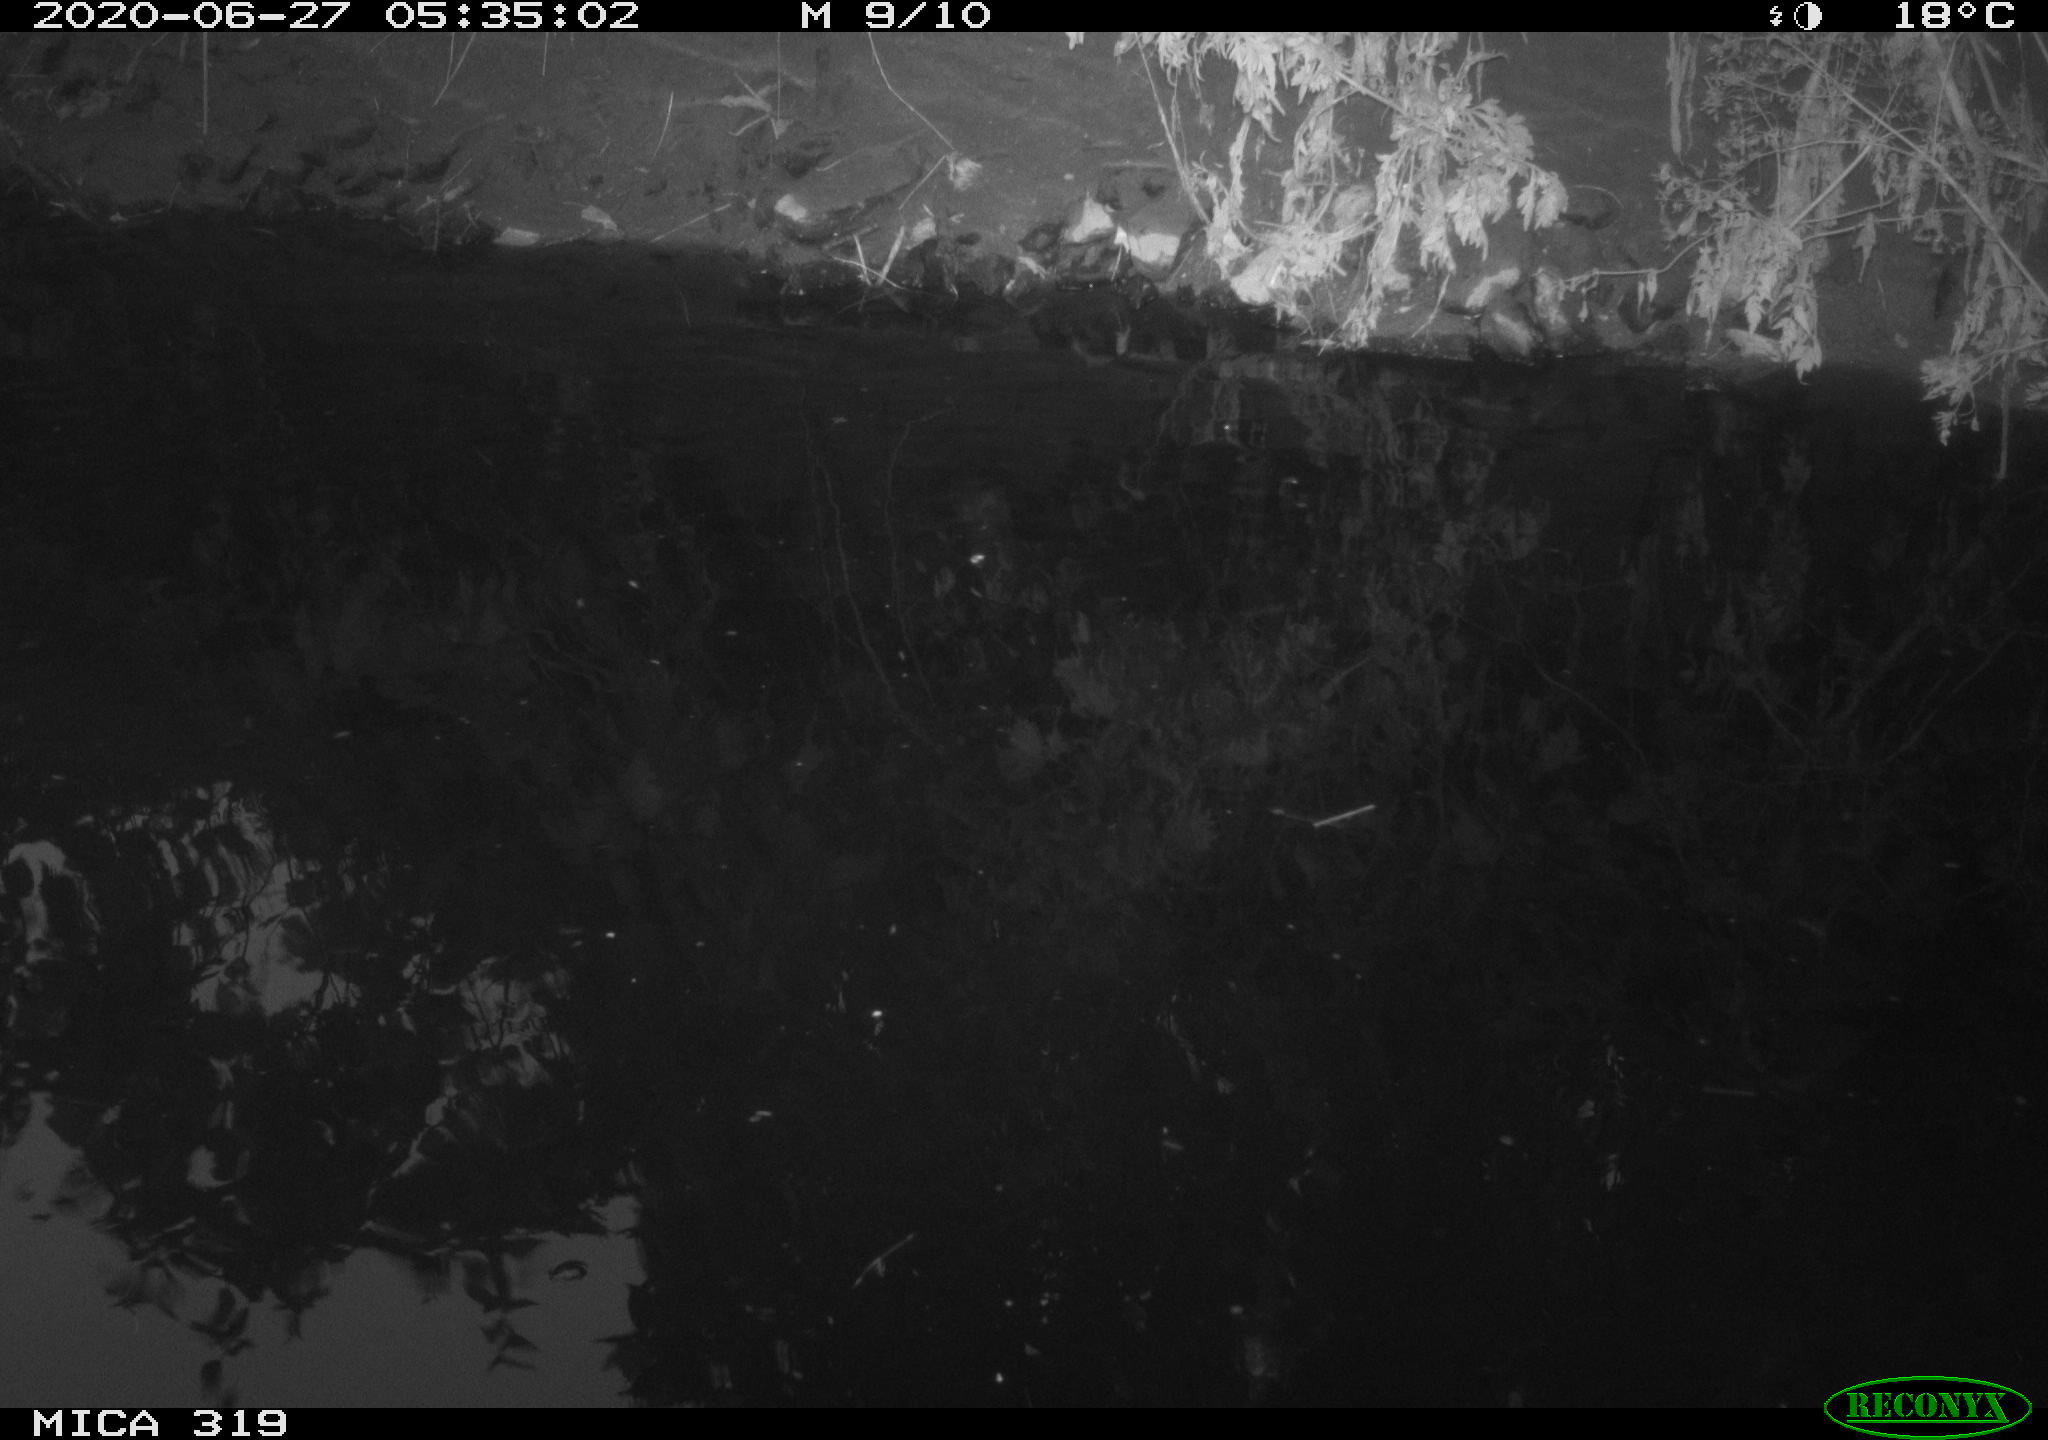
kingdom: Animalia
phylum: Chordata
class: Aves
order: Anseriformes
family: Anatidae
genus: Anas
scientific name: Anas platyrhynchos
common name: Mallard
